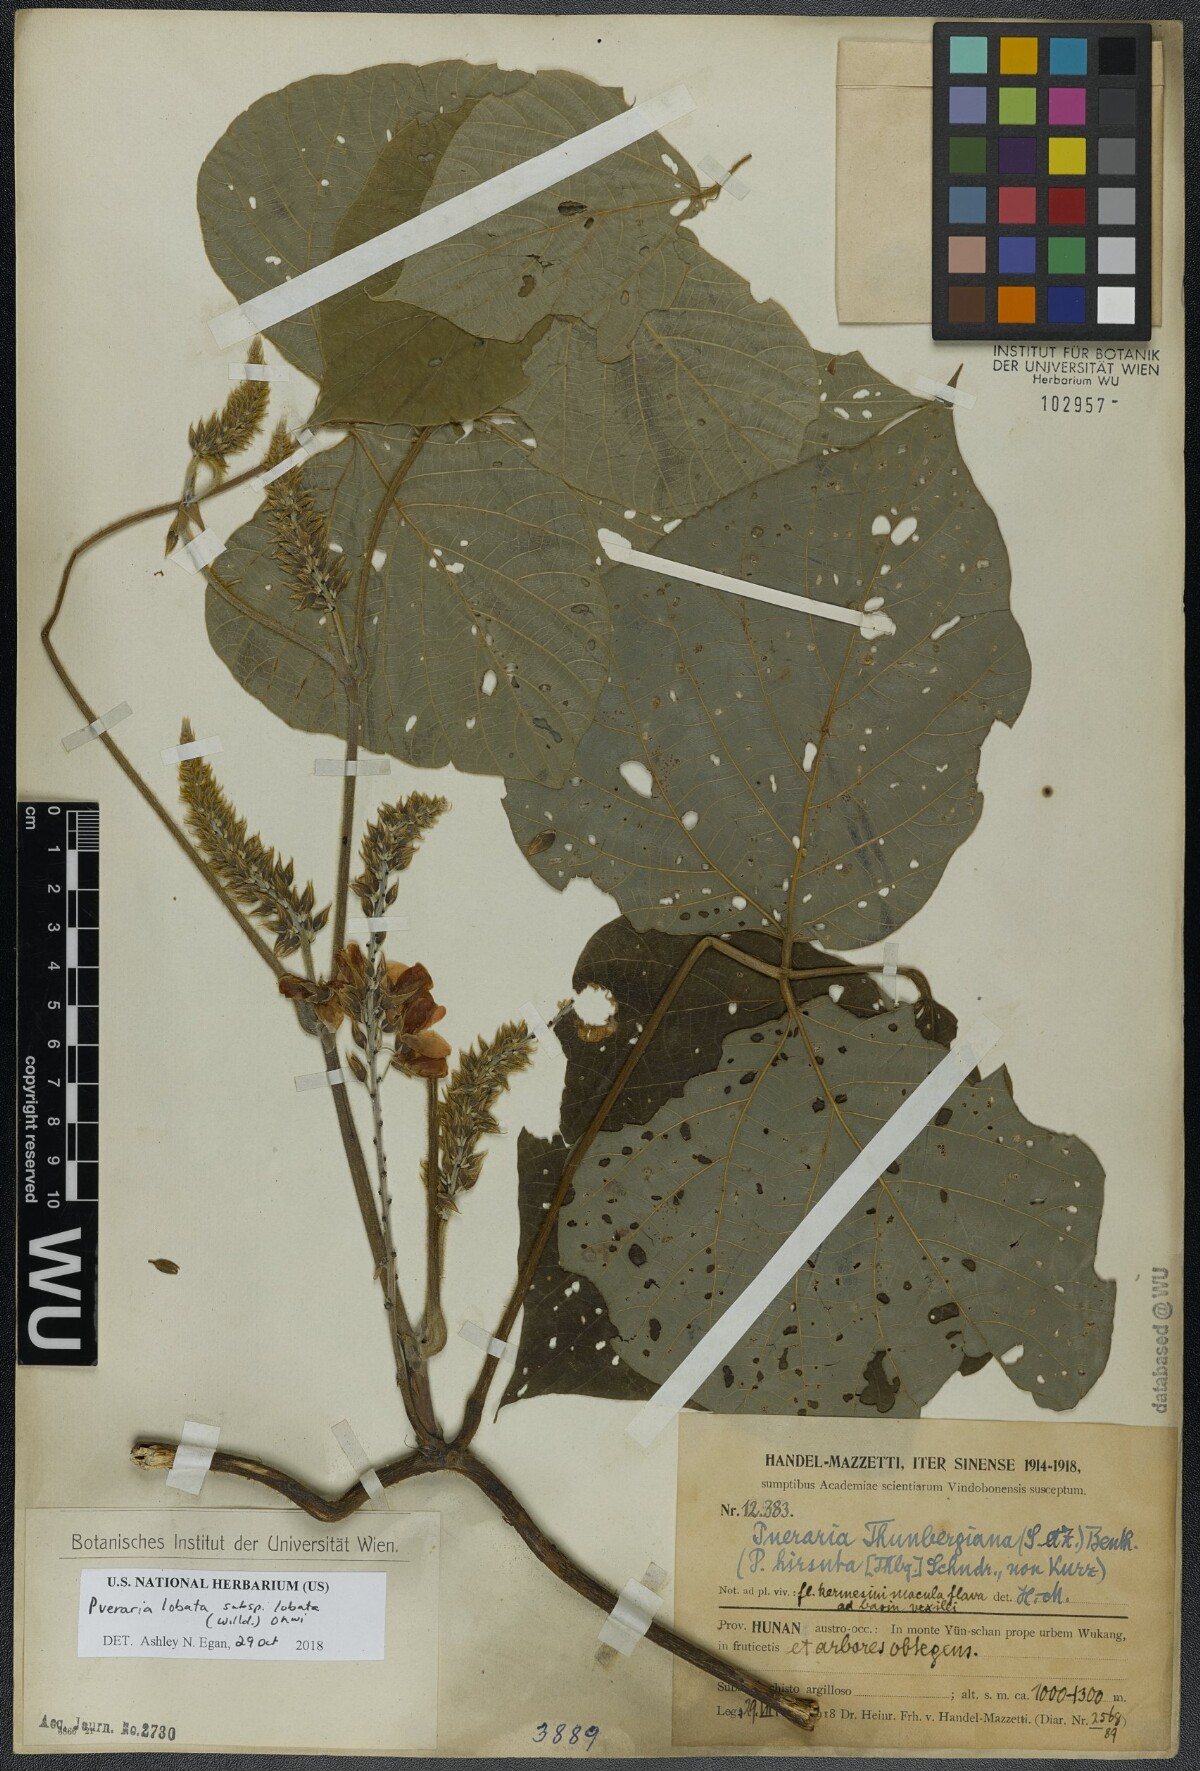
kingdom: Plantae
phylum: Tracheophyta
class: Magnoliopsida
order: Fabales
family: Fabaceae
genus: Pueraria
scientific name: Pueraria montana
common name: Kudzu
